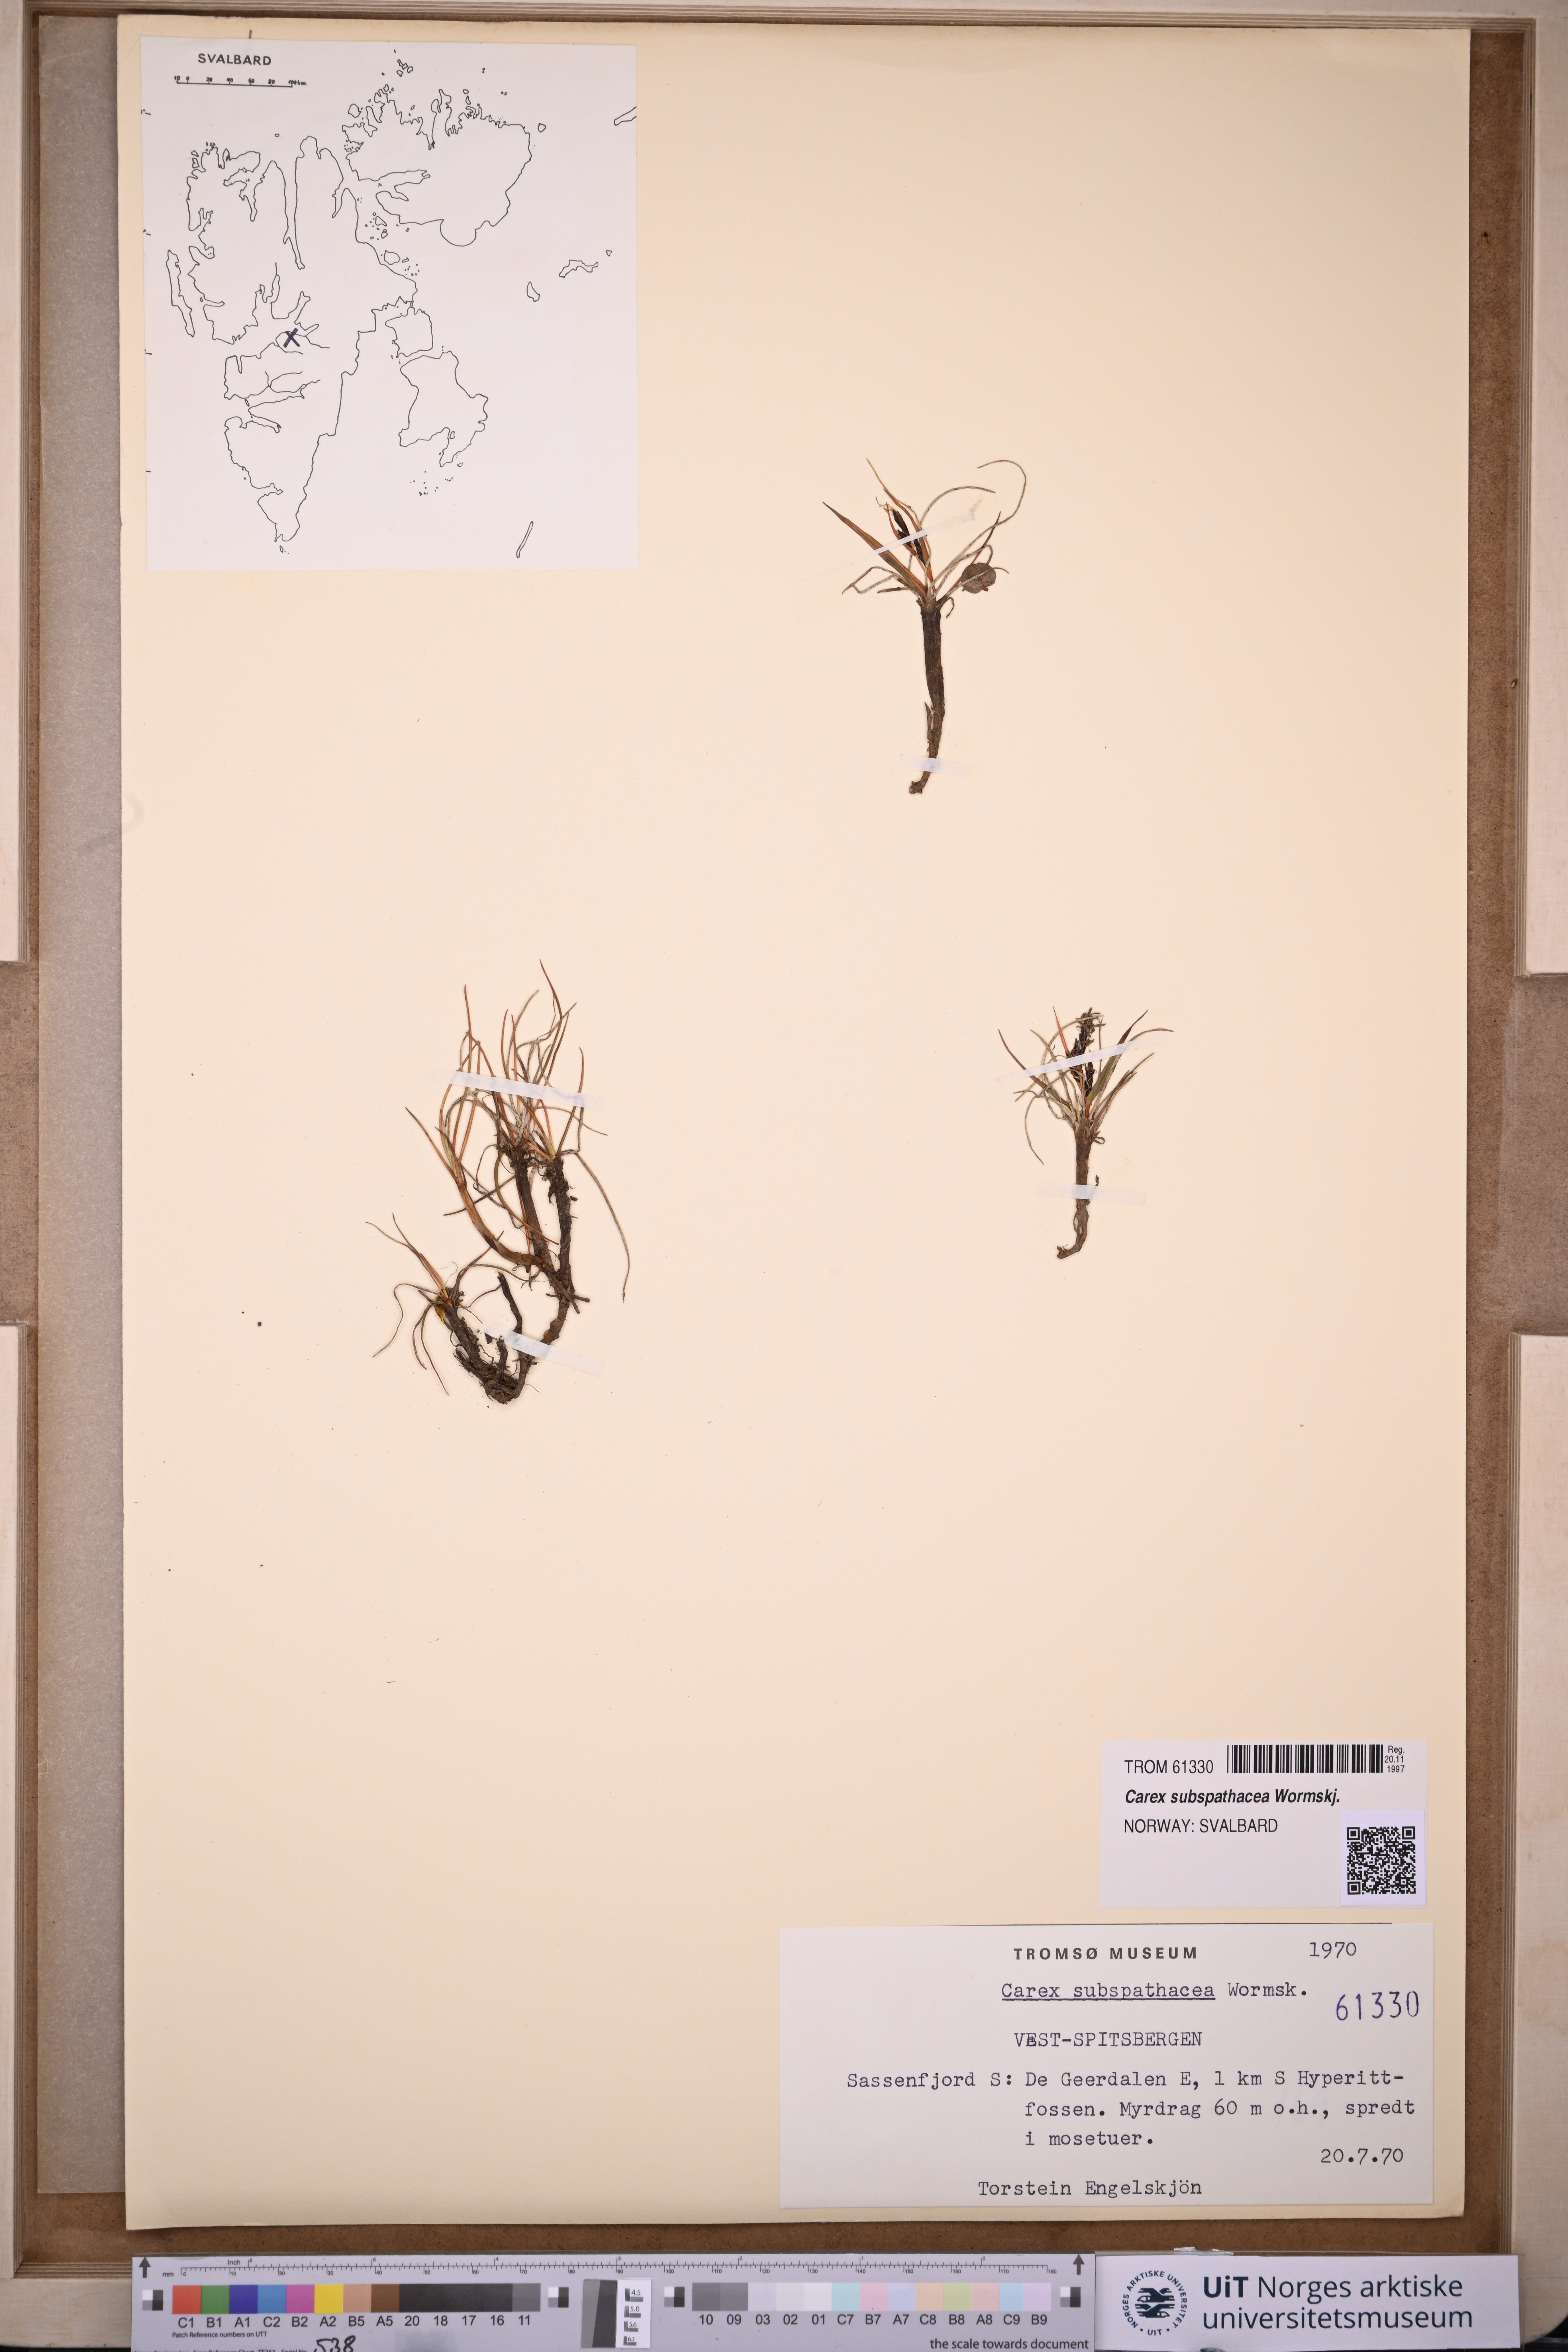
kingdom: Plantae
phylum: Tracheophyta
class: Liliopsida
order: Poales
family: Cyperaceae
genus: Carex
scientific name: Carex subspathacea
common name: Hoppner's sedge
